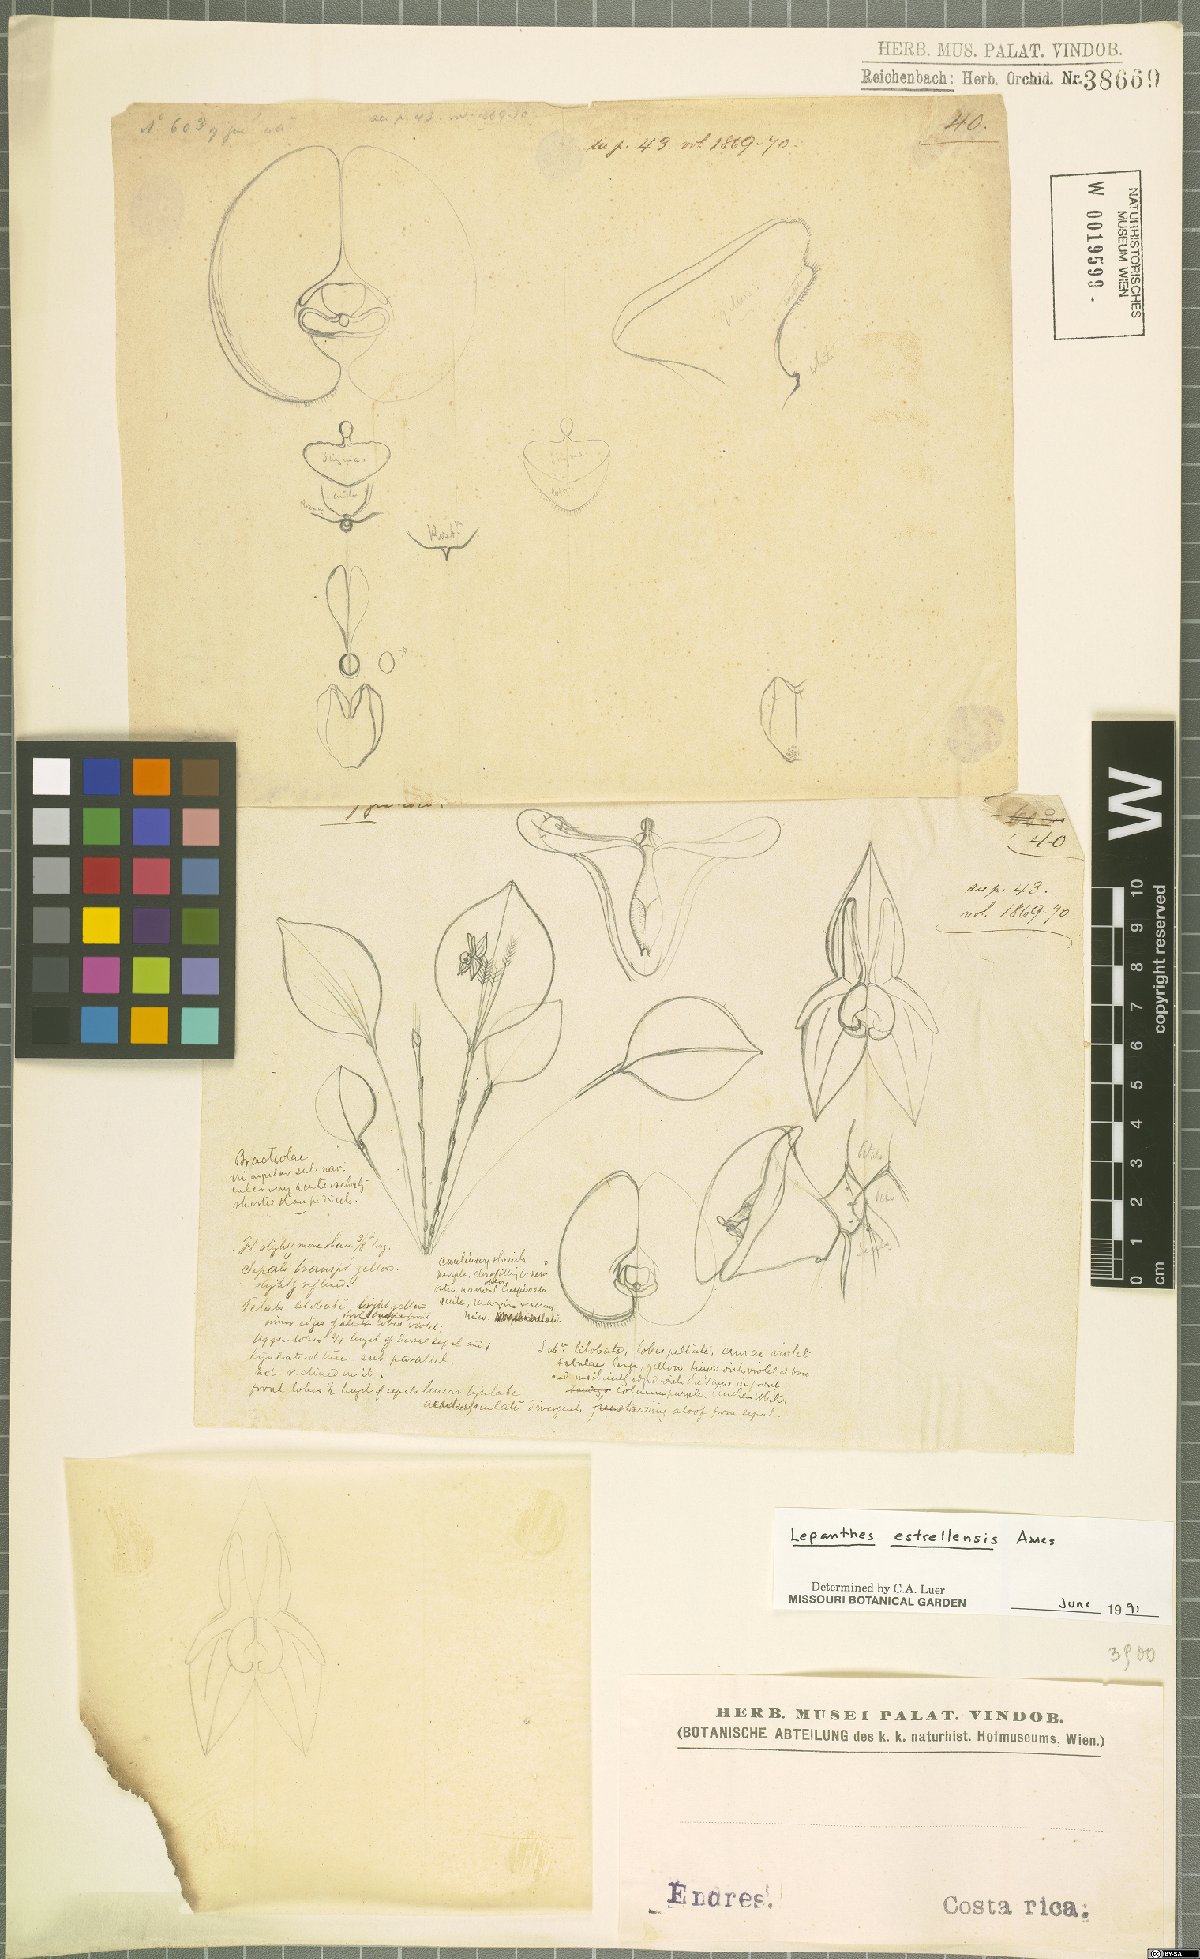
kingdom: Plantae
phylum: Tracheophyta
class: Liliopsida
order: Asparagales
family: Orchidaceae
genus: Lepanthes
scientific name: Lepanthes estrellensis
